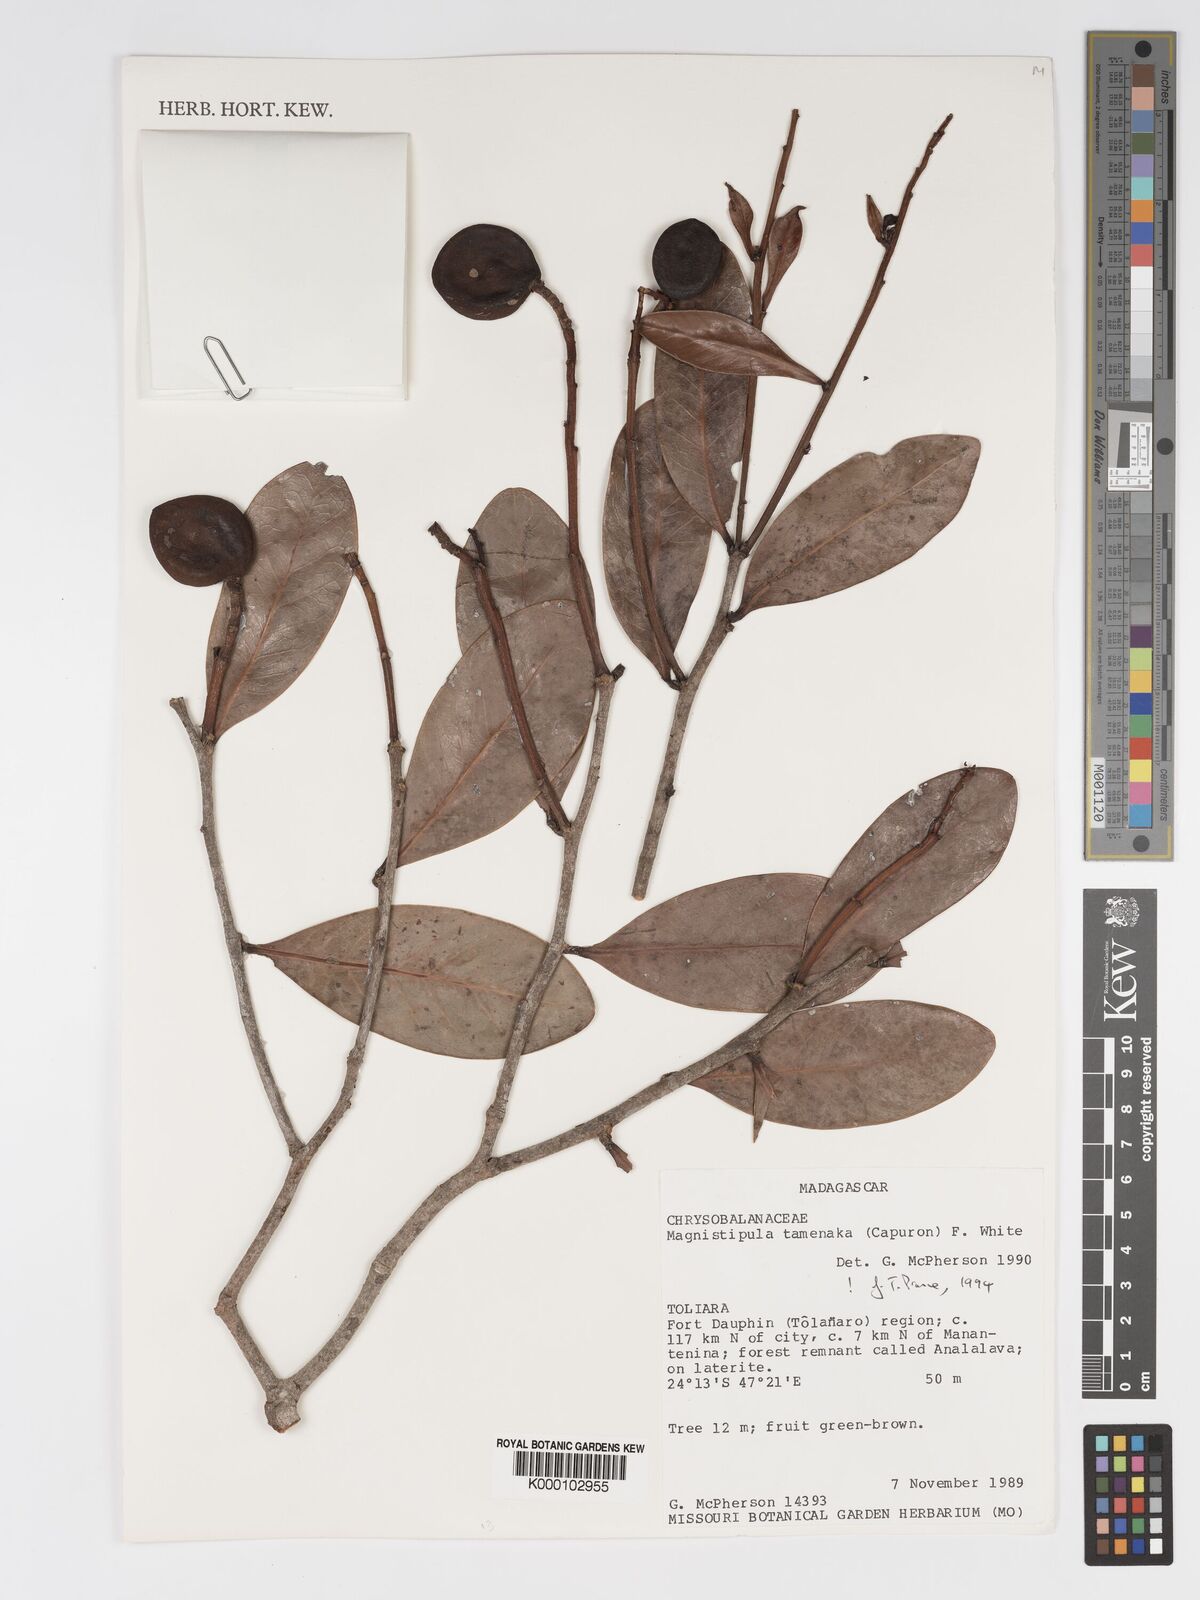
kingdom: Plantae
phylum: Tracheophyta
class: Magnoliopsida
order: Malpighiales
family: Chrysobalanaceae
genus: Magnistipula
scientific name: Magnistipula tamenaka
